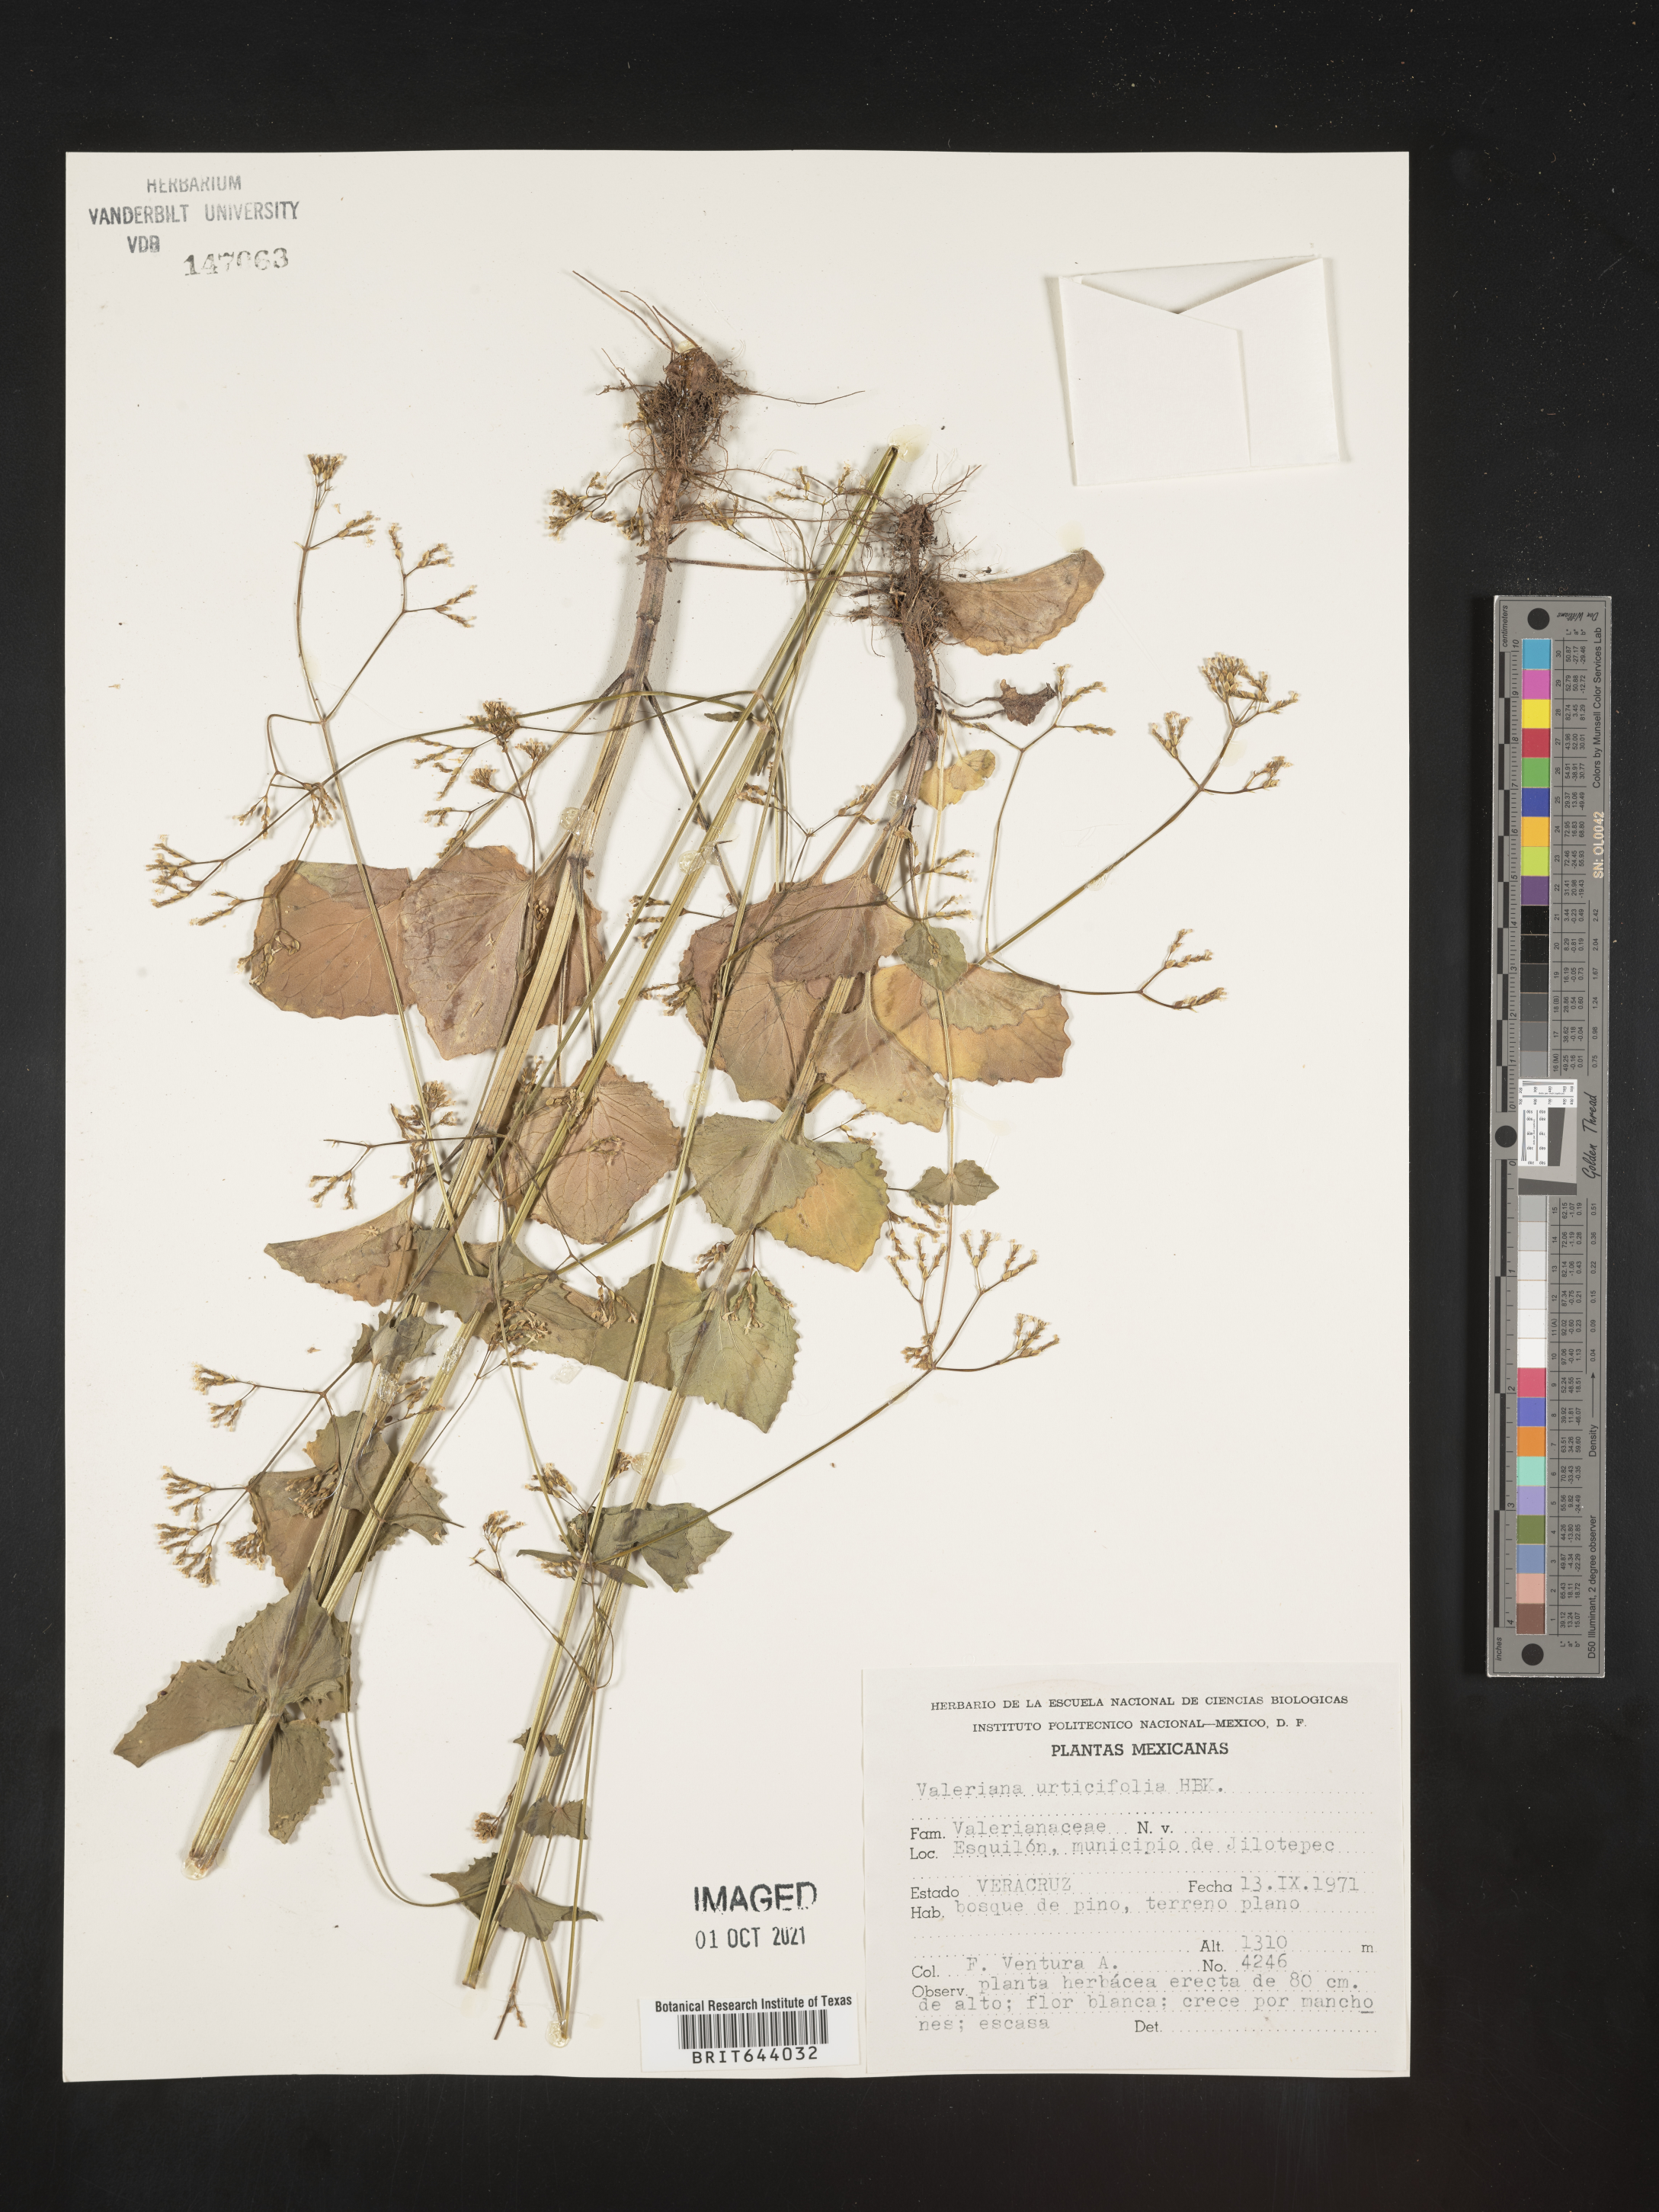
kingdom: Plantae
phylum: Tracheophyta
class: Magnoliopsida
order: Dipsacales
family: Caprifoliaceae
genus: Valeriana
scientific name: Valeriana
